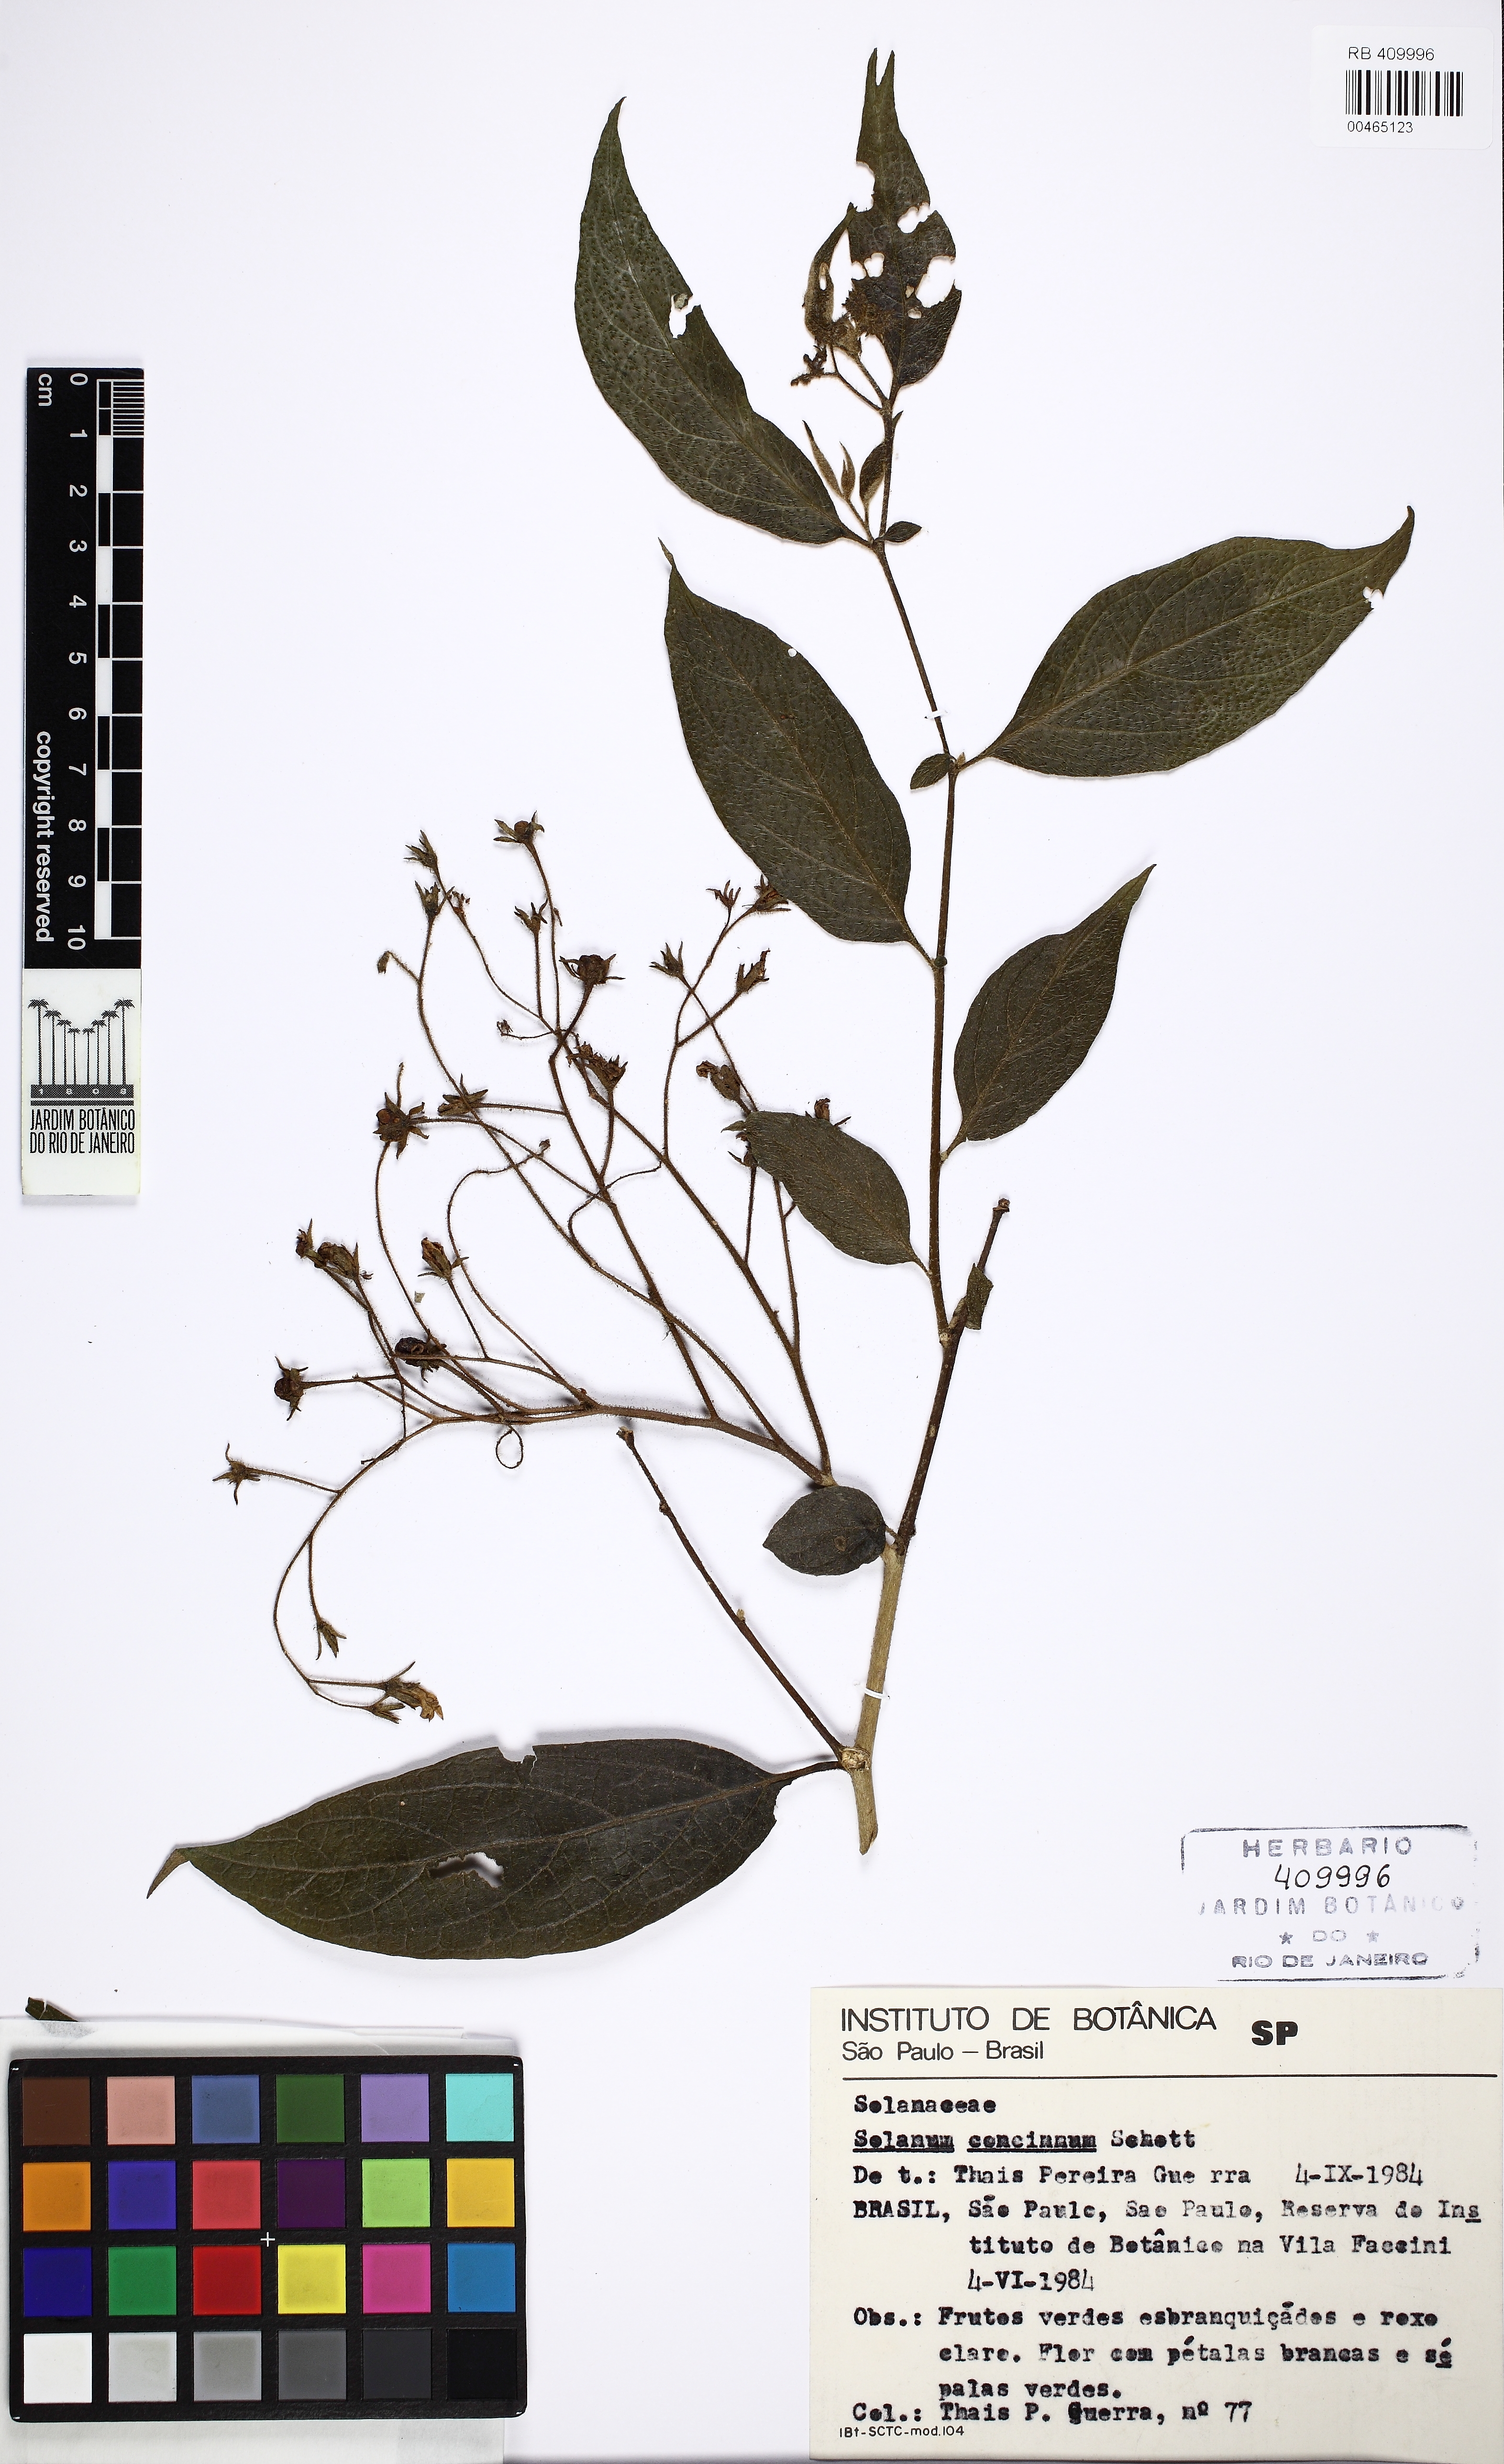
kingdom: Plantae
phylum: Tracheophyta
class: Magnoliopsida
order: Solanales
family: Solanaceae
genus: Solanum
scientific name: Solanum concinnum
